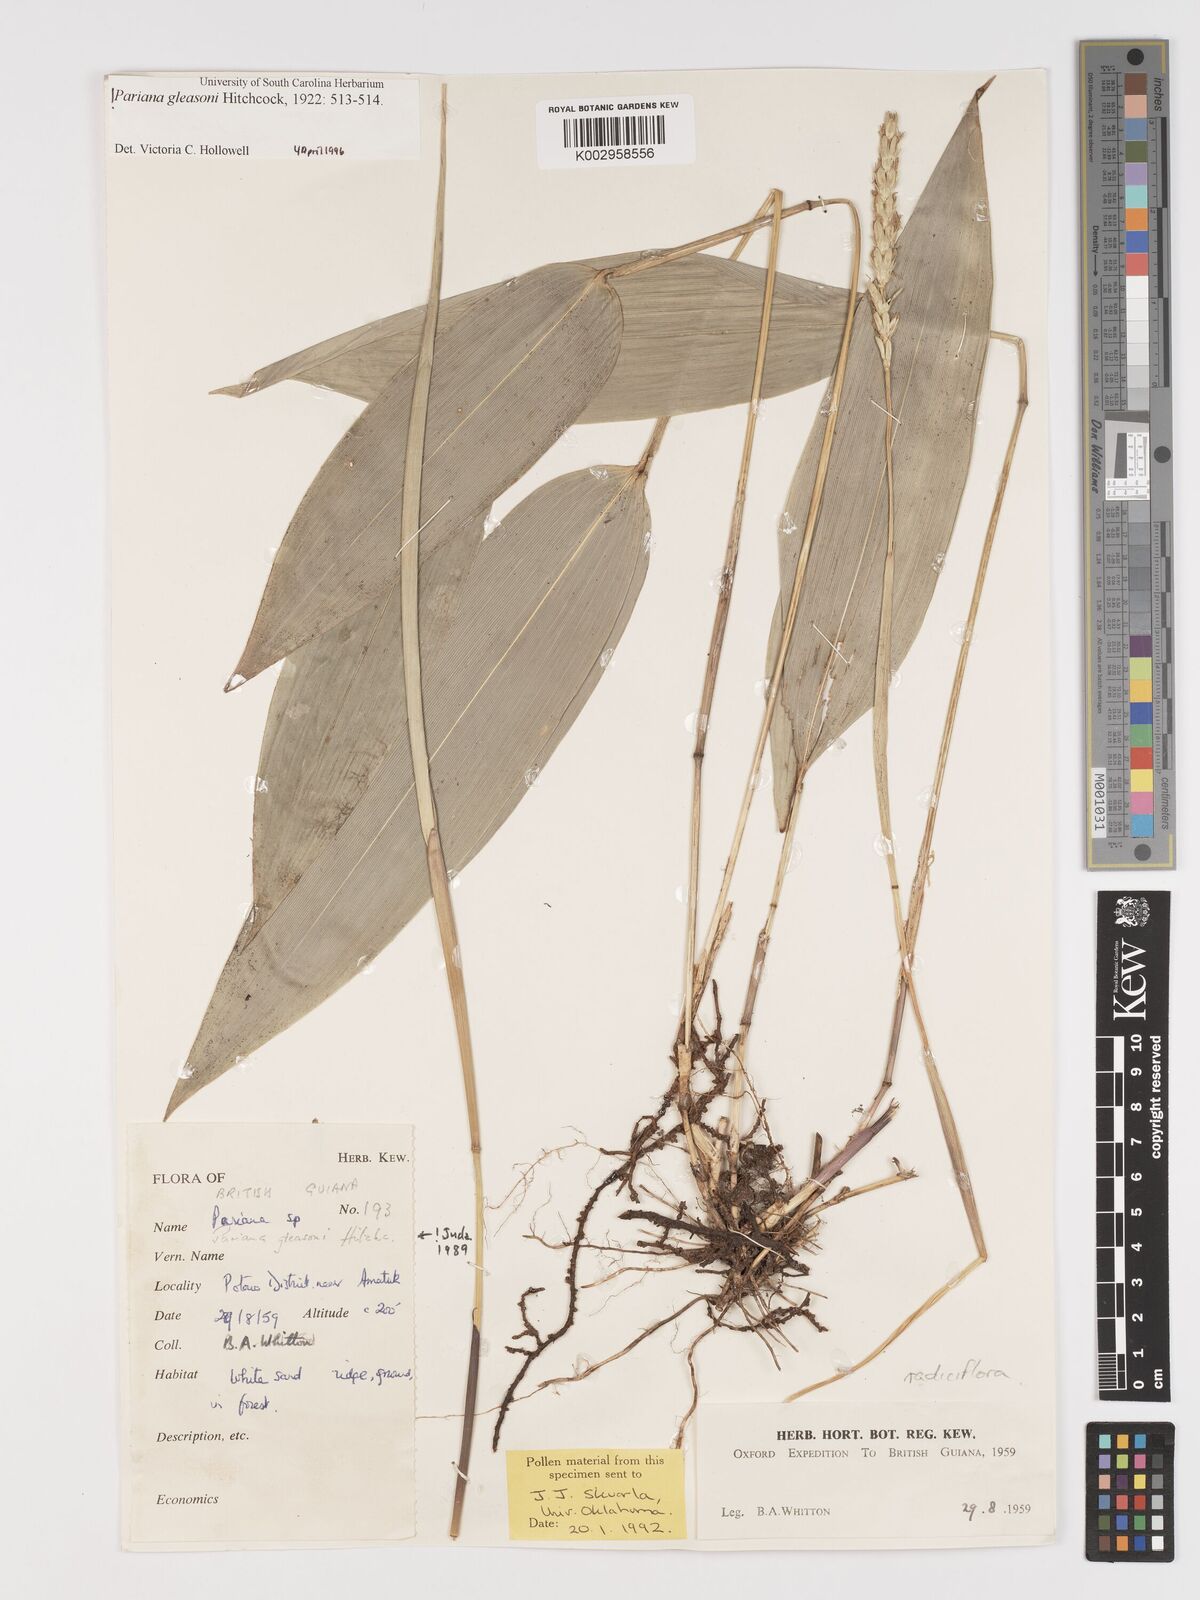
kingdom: Plantae
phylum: Tracheophyta
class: Liliopsida
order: Poales
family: Poaceae
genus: Pariana
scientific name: Pariana radiciflora
